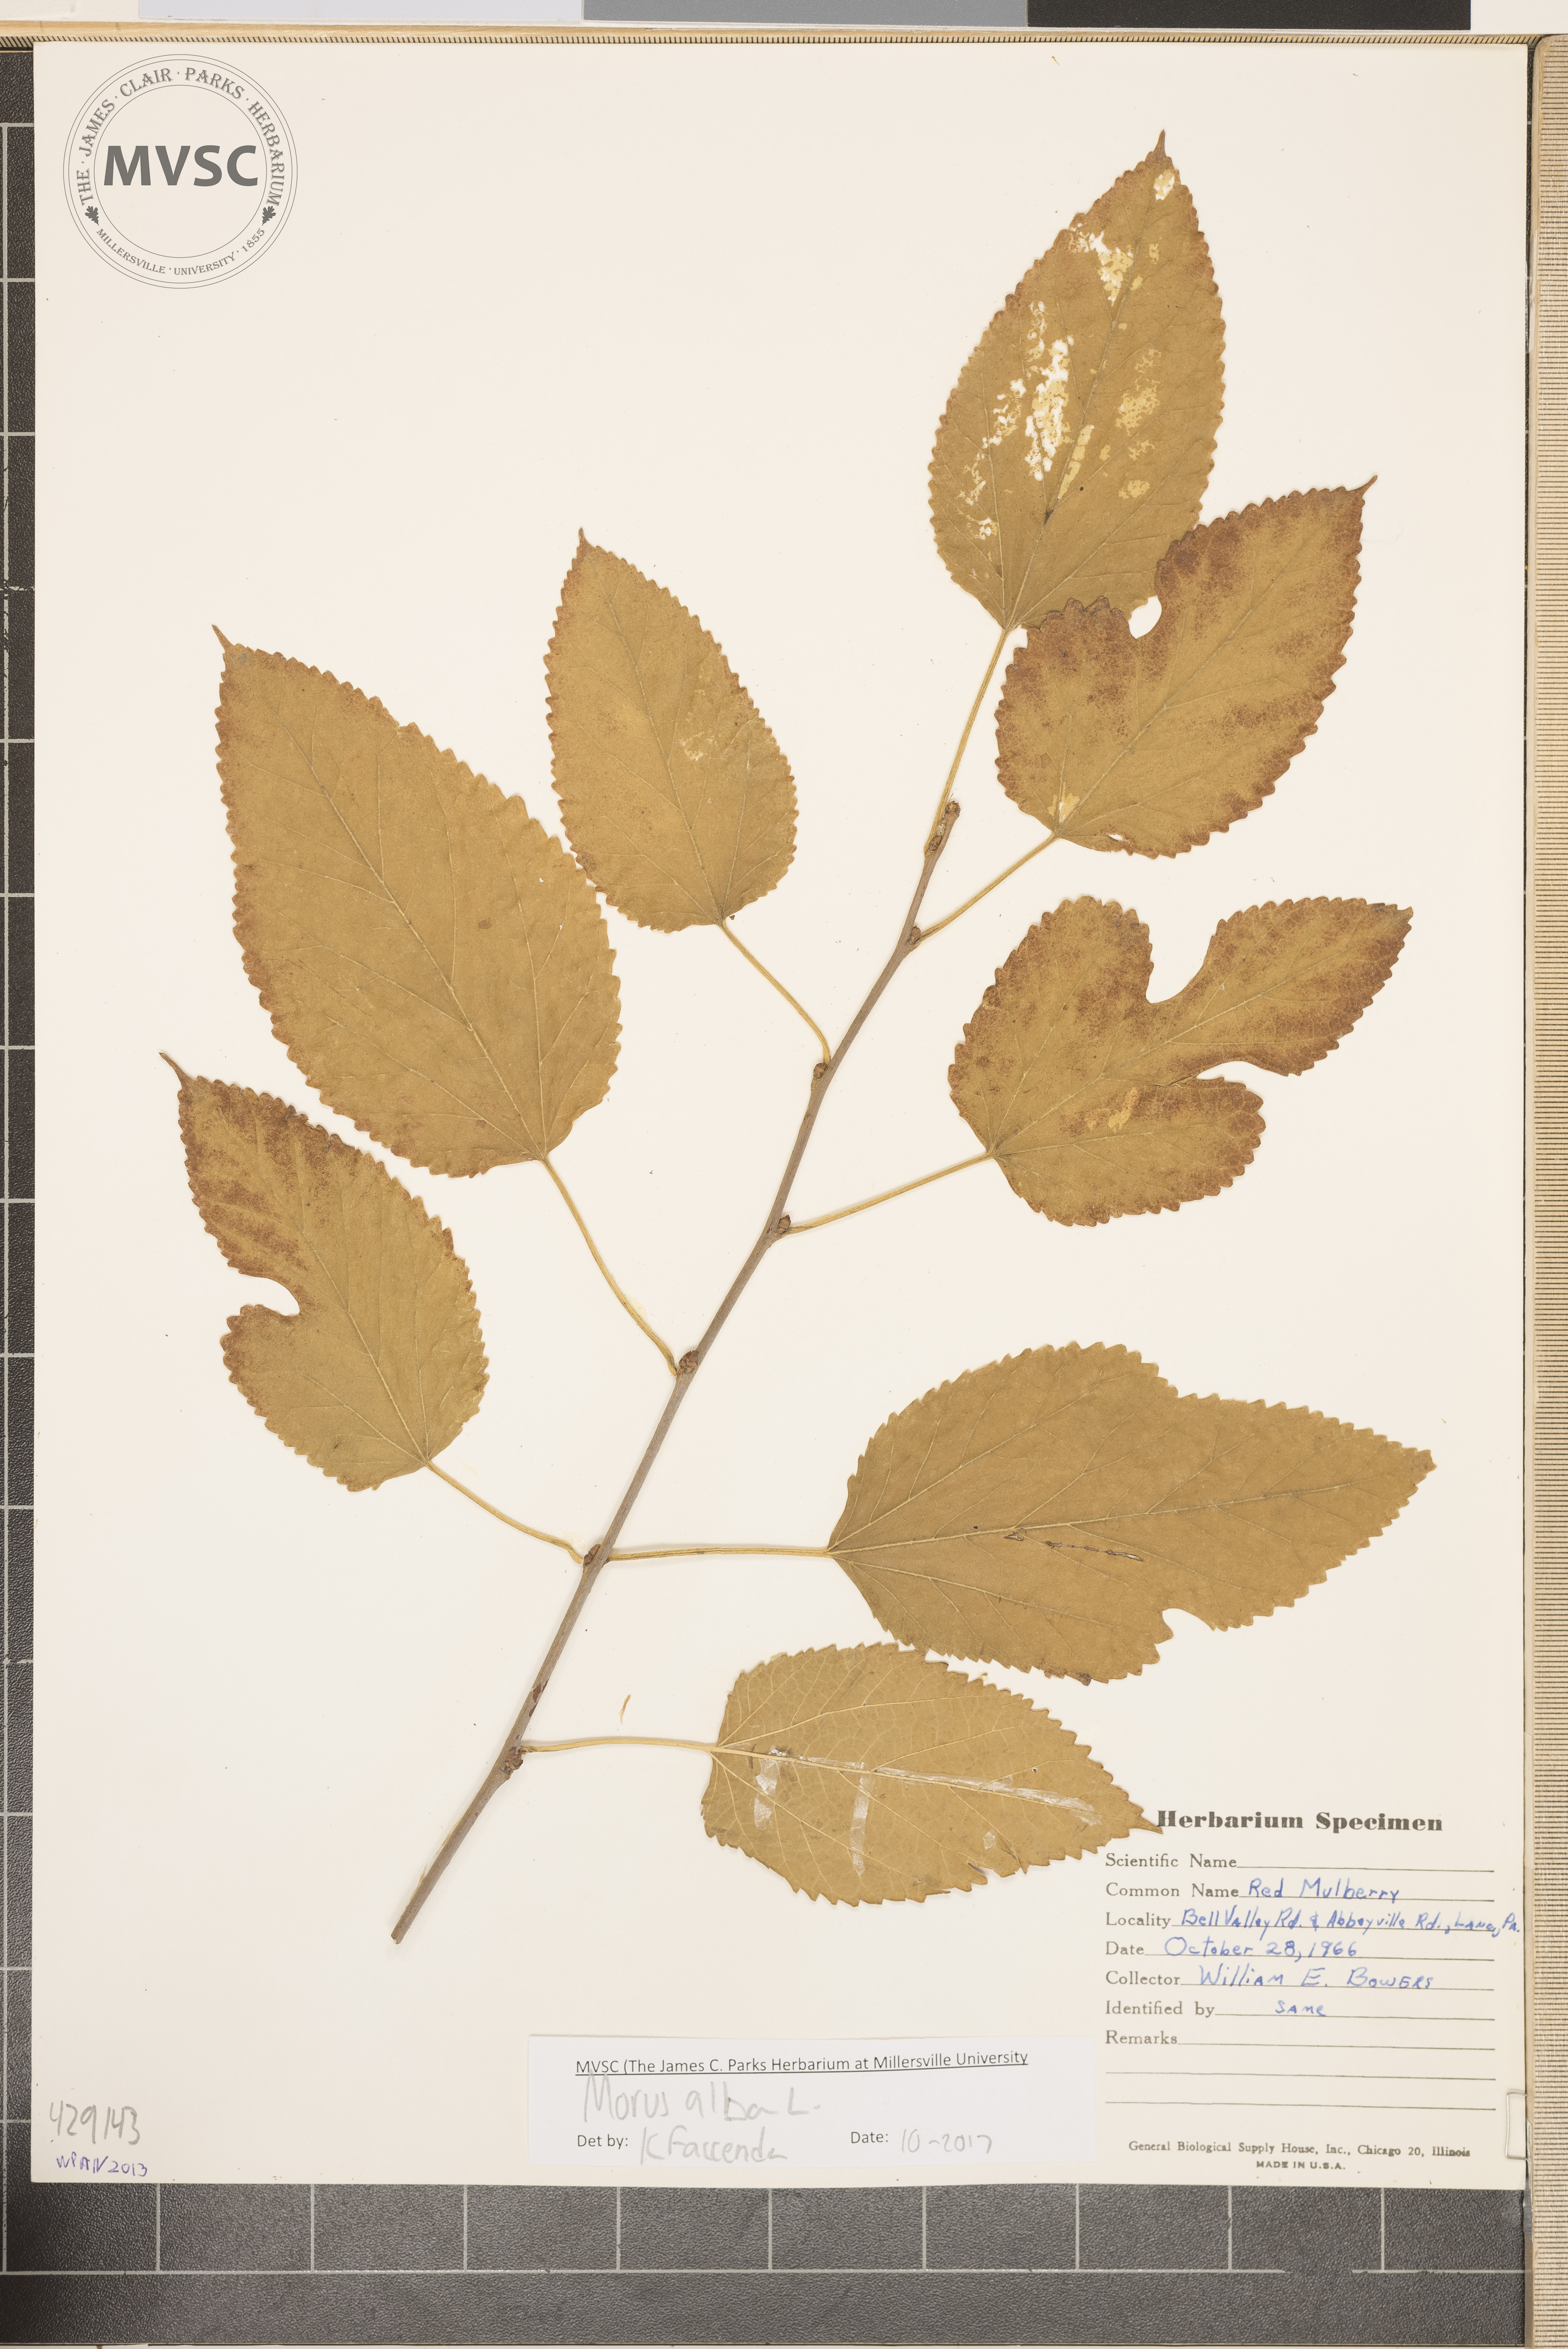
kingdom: Plantae
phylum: Tracheophyta
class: Magnoliopsida
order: Rosales
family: Moraceae
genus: Morus
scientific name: Morus alba
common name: White mulberry
